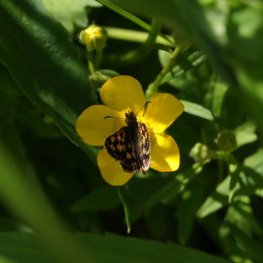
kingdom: Animalia
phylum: Arthropoda
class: Insecta
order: Lepidoptera
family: Hesperiidae
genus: Carterocephalus
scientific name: Carterocephalus palaemon
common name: Chequered Skipper
